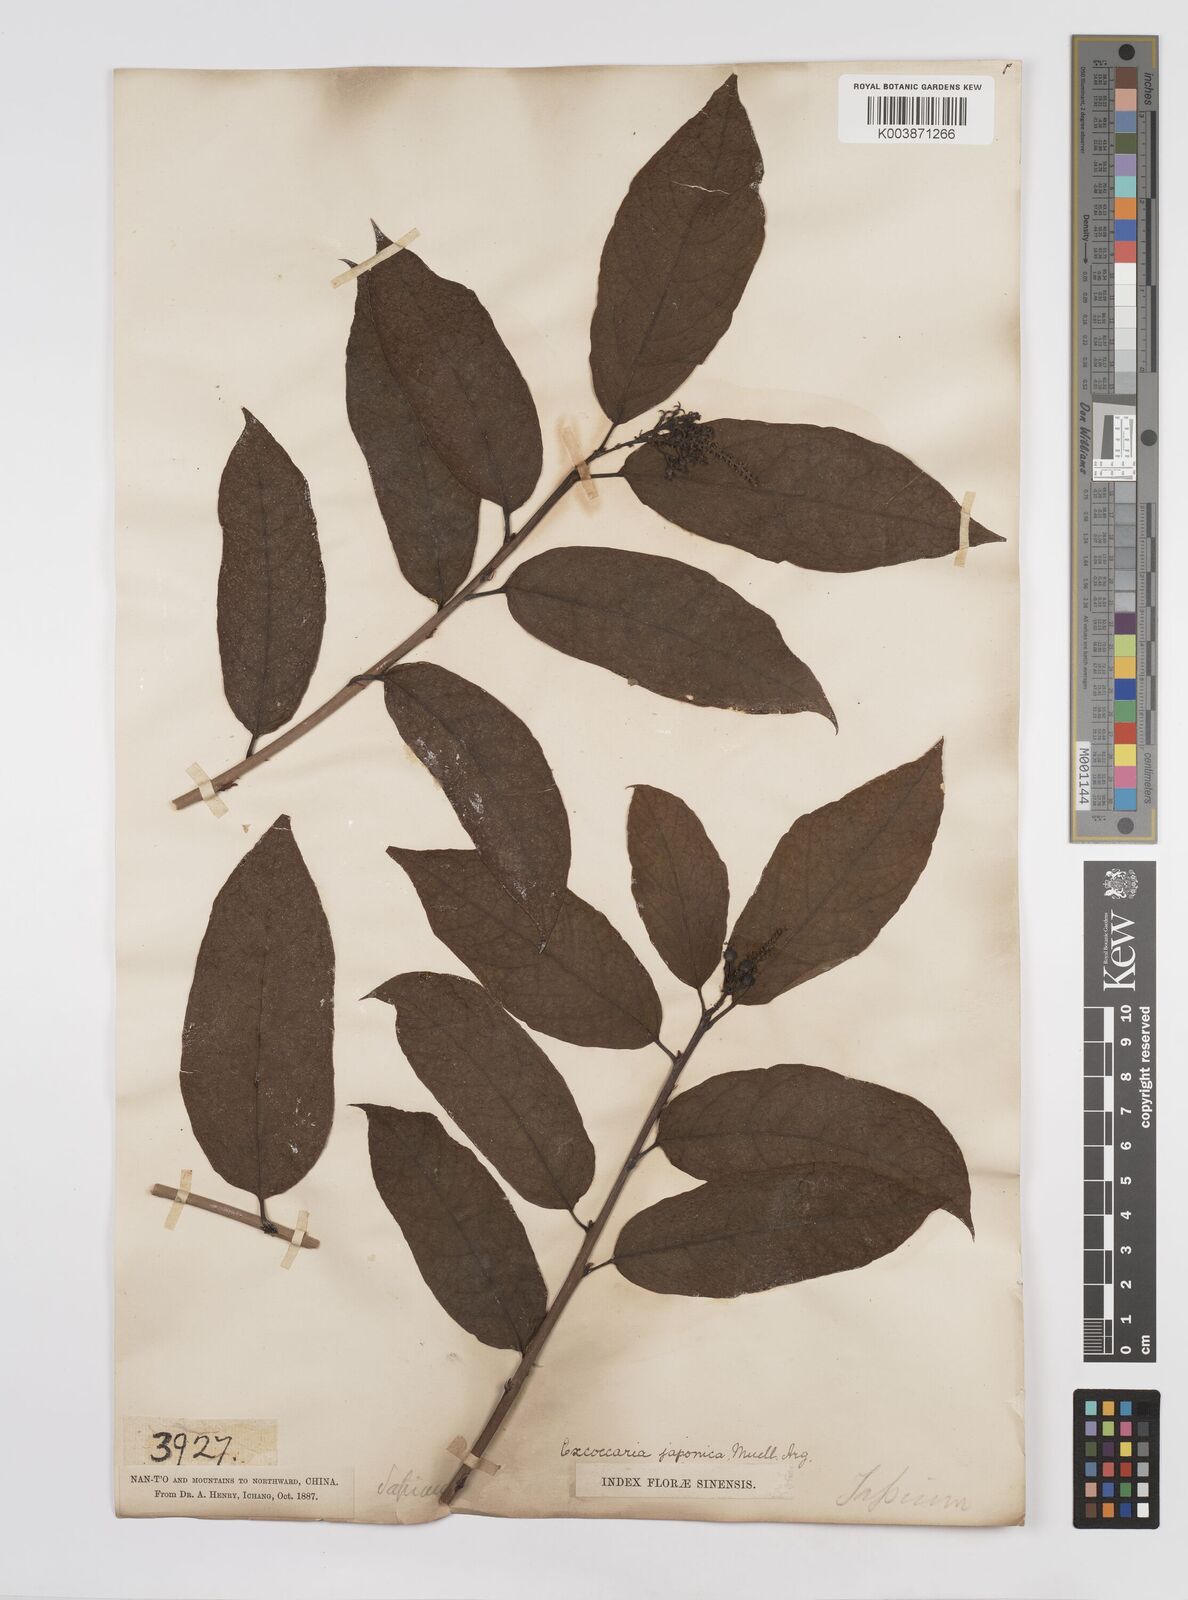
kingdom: Plantae
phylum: Tracheophyta
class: Magnoliopsida
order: Malpighiales
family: Euphorbiaceae
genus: Neoshirakia
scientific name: Neoshirakia japonica
